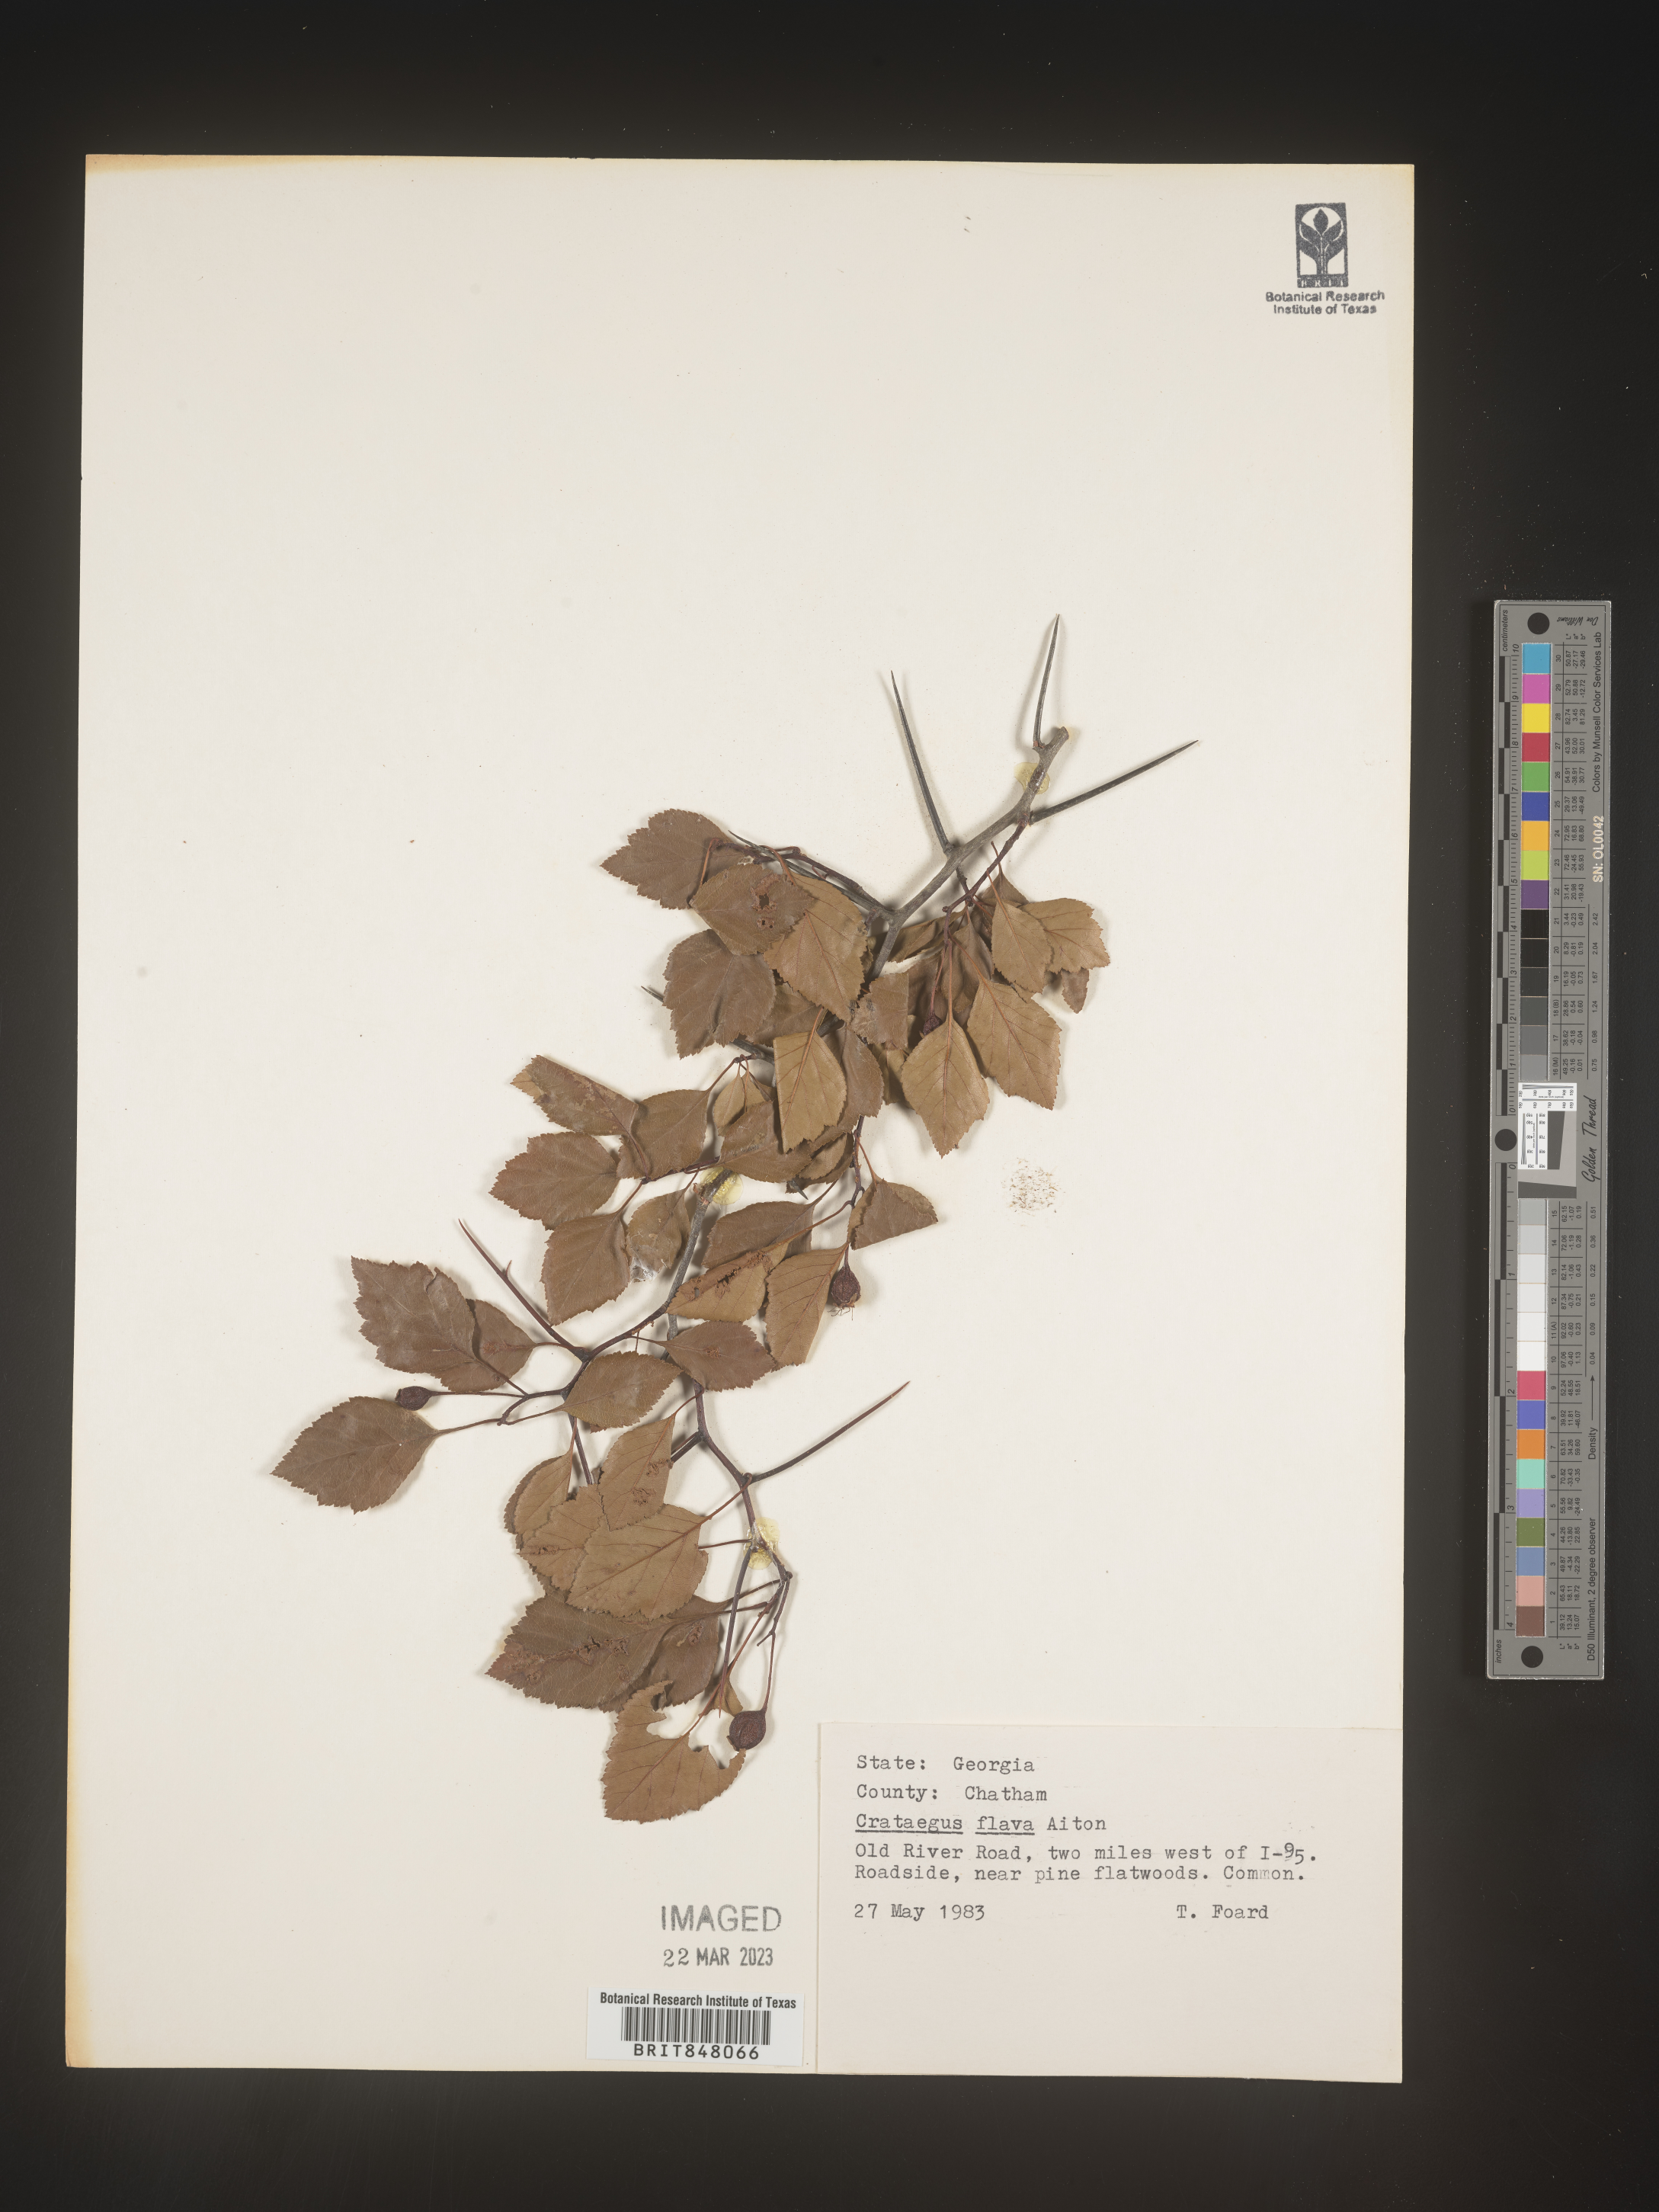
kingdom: Plantae
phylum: Tracheophyta
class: Magnoliopsida
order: Rosales
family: Rosaceae
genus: Crataegus
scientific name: Crataegus flava
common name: Yellow hawthorn
